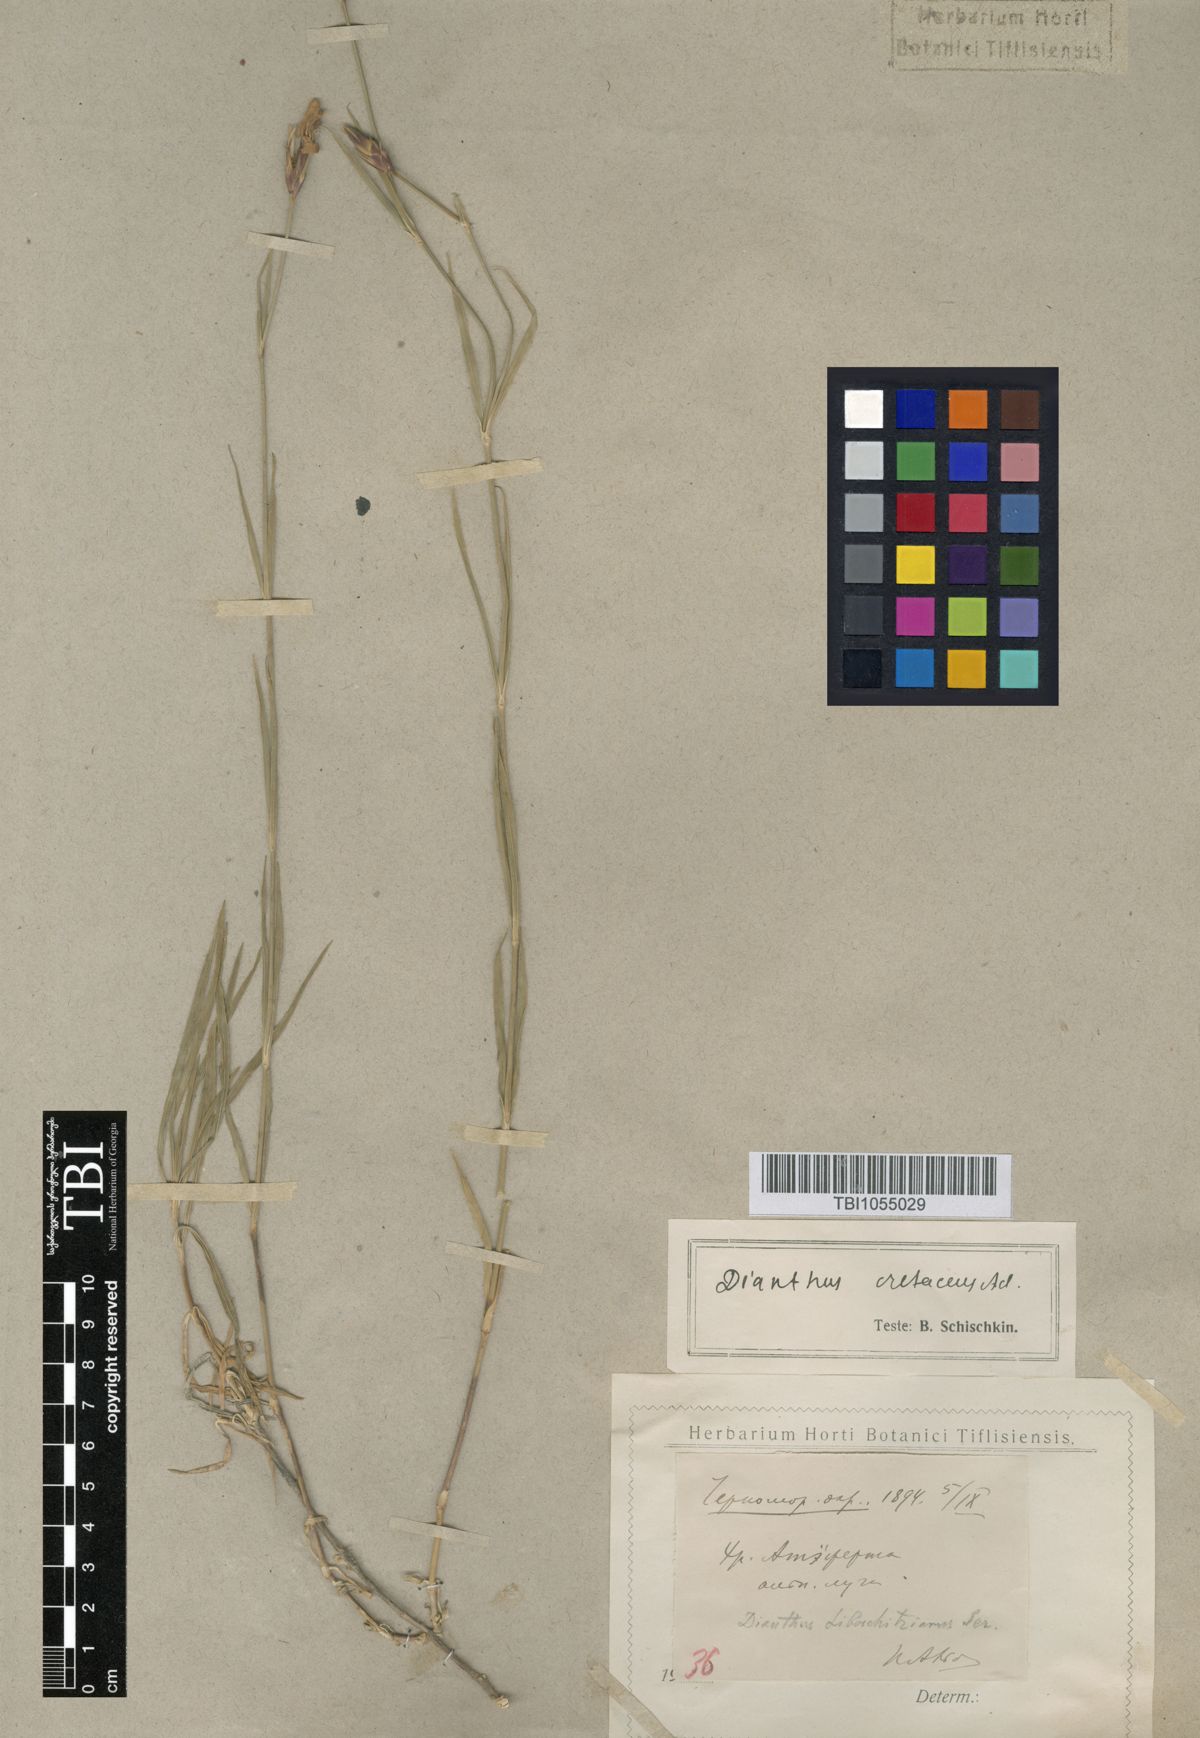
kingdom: Plantae
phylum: Tracheophyta
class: Magnoliopsida
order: Caryophyllales
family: Caryophyllaceae
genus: Dianthus
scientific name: Dianthus cretaceus
